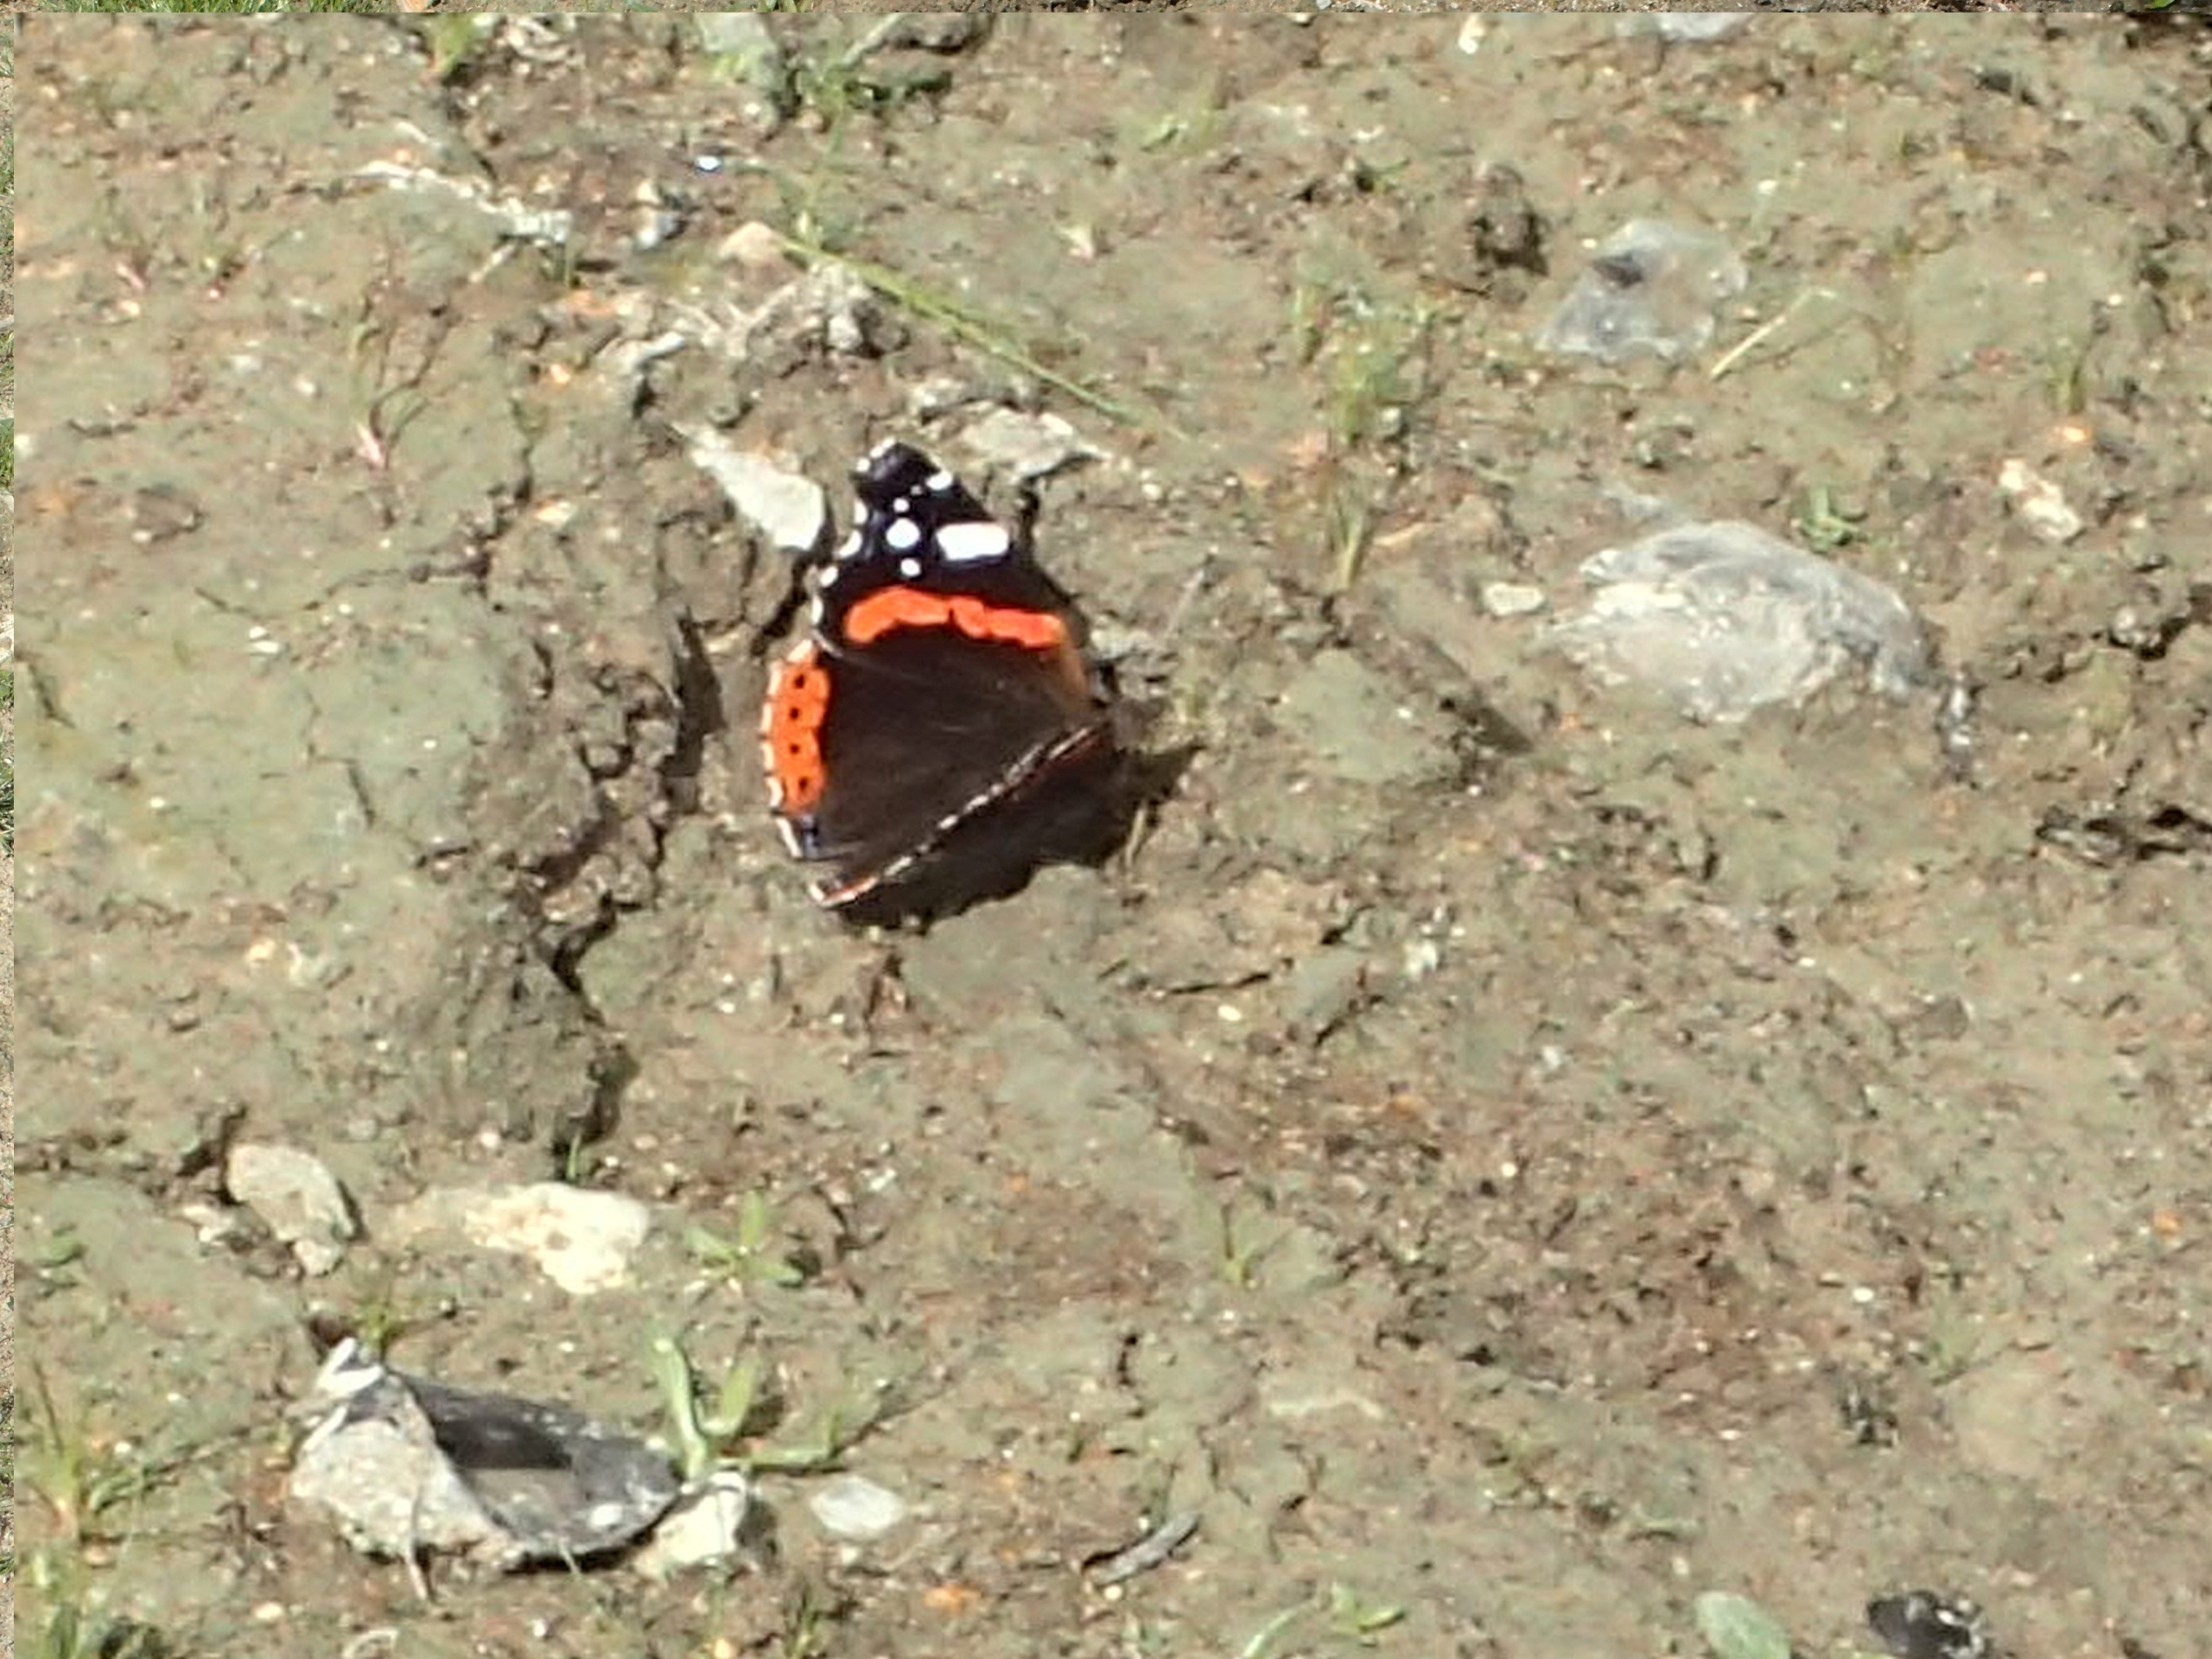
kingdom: Animalia
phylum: Arthropoda
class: Insecta
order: Lepidoptera
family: Nymphalidae
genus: Vanessa
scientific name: Vanessa atalanta
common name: Admiral
